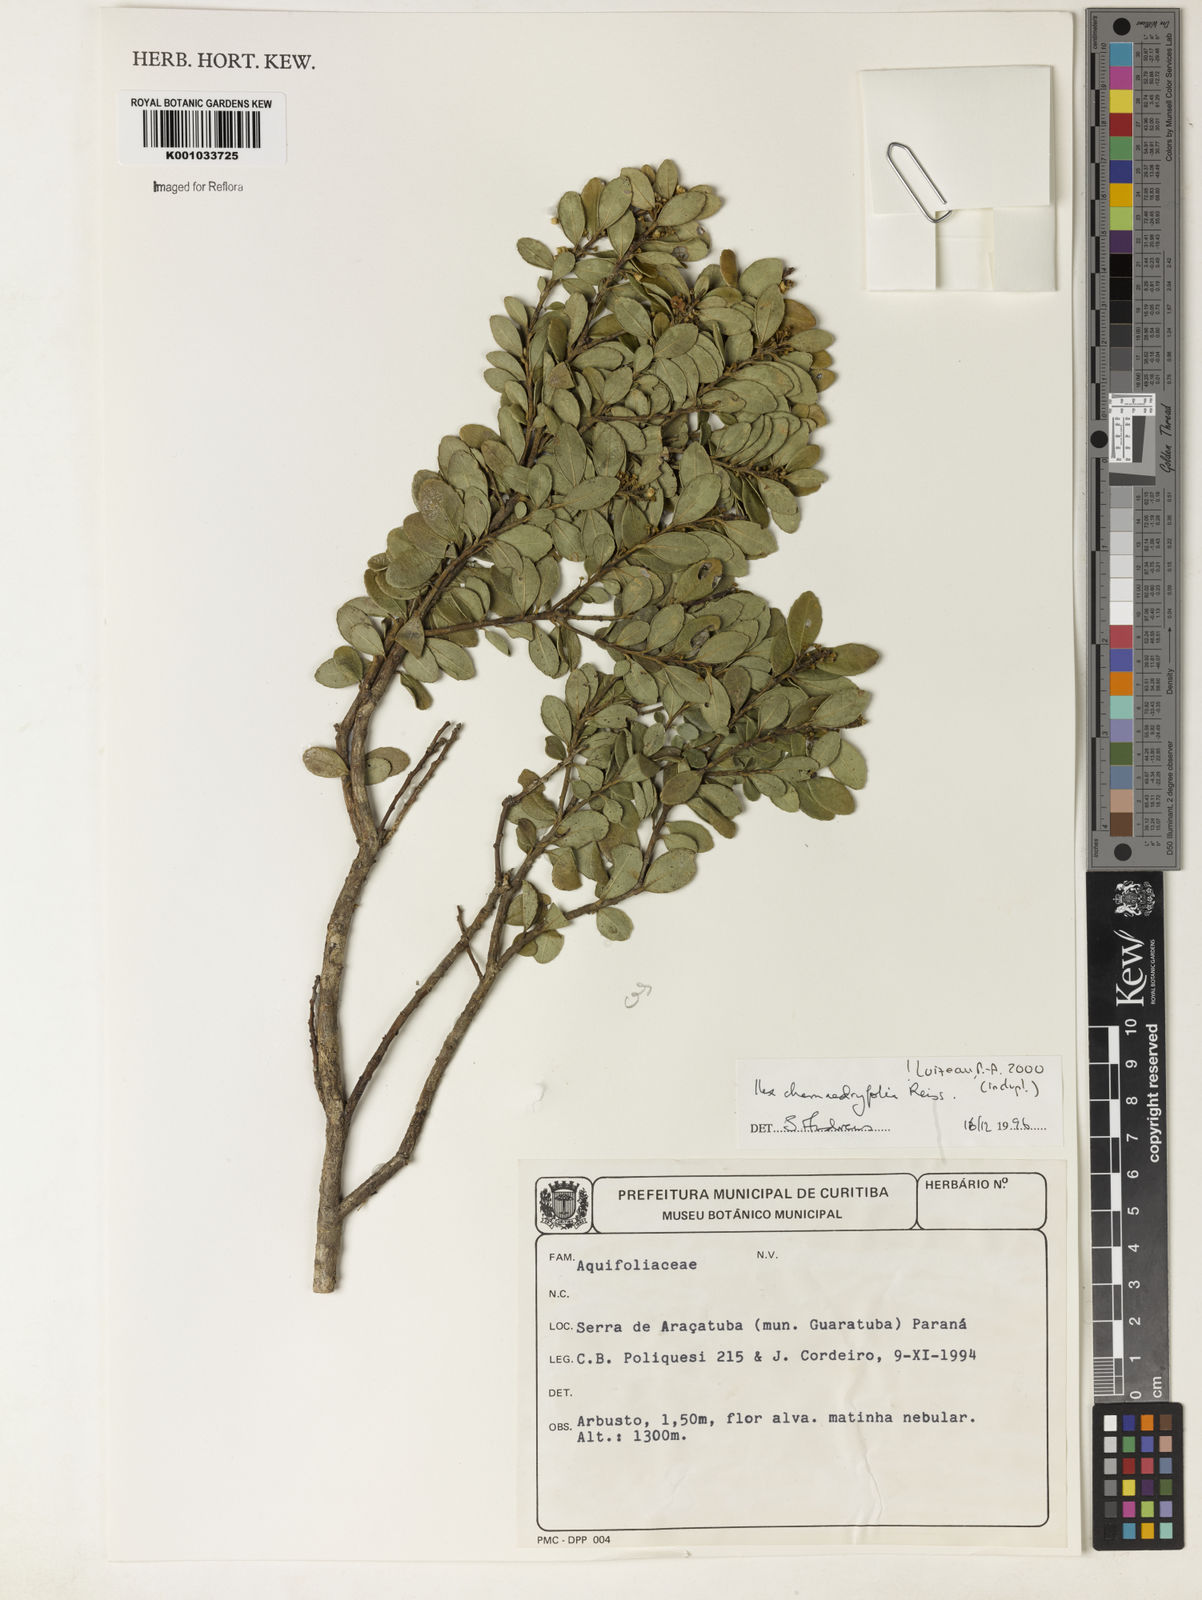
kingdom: Plantae
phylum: Tracheophyta
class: Magnoliopsida
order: Aquifoliales
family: Aquifoliaceae
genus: Ilex
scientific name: Ilex chamaedryfolia
